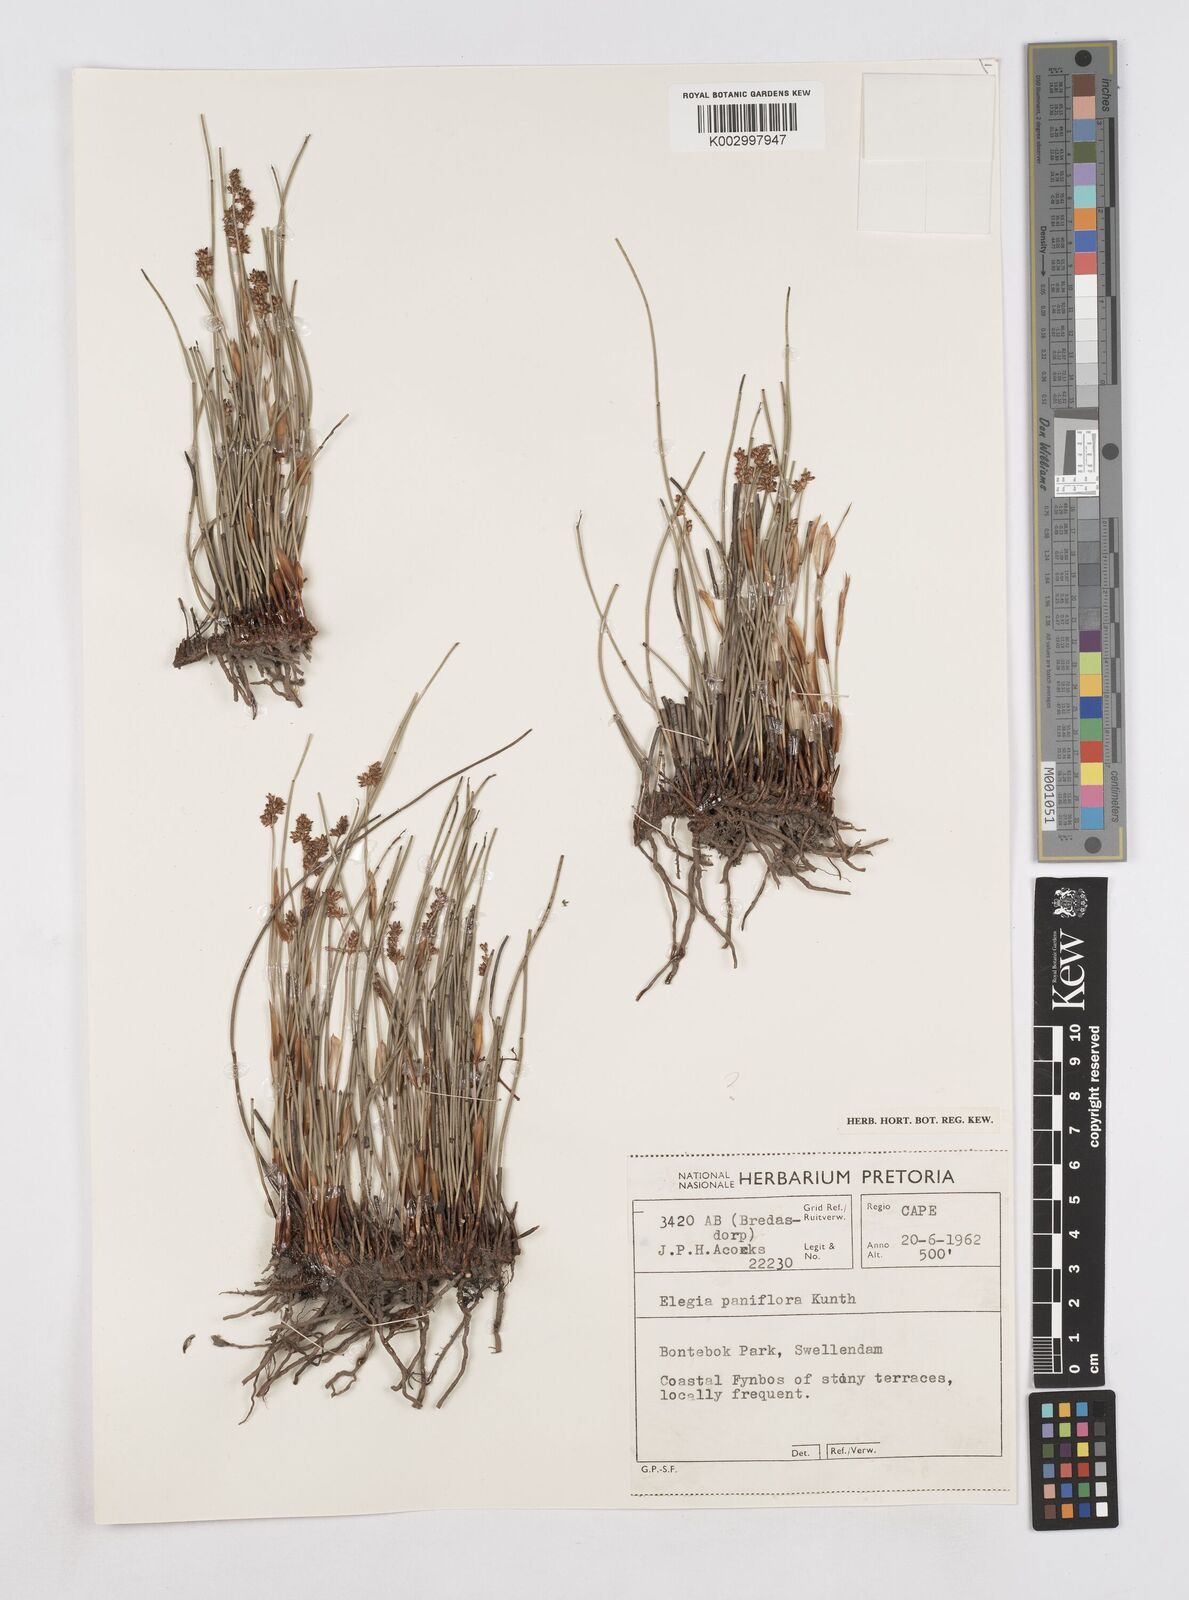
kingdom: Plantae
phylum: Tracheophyta
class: Liliopsida
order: Poales
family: Restionaceae
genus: Elegia
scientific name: Elegia squamosa
